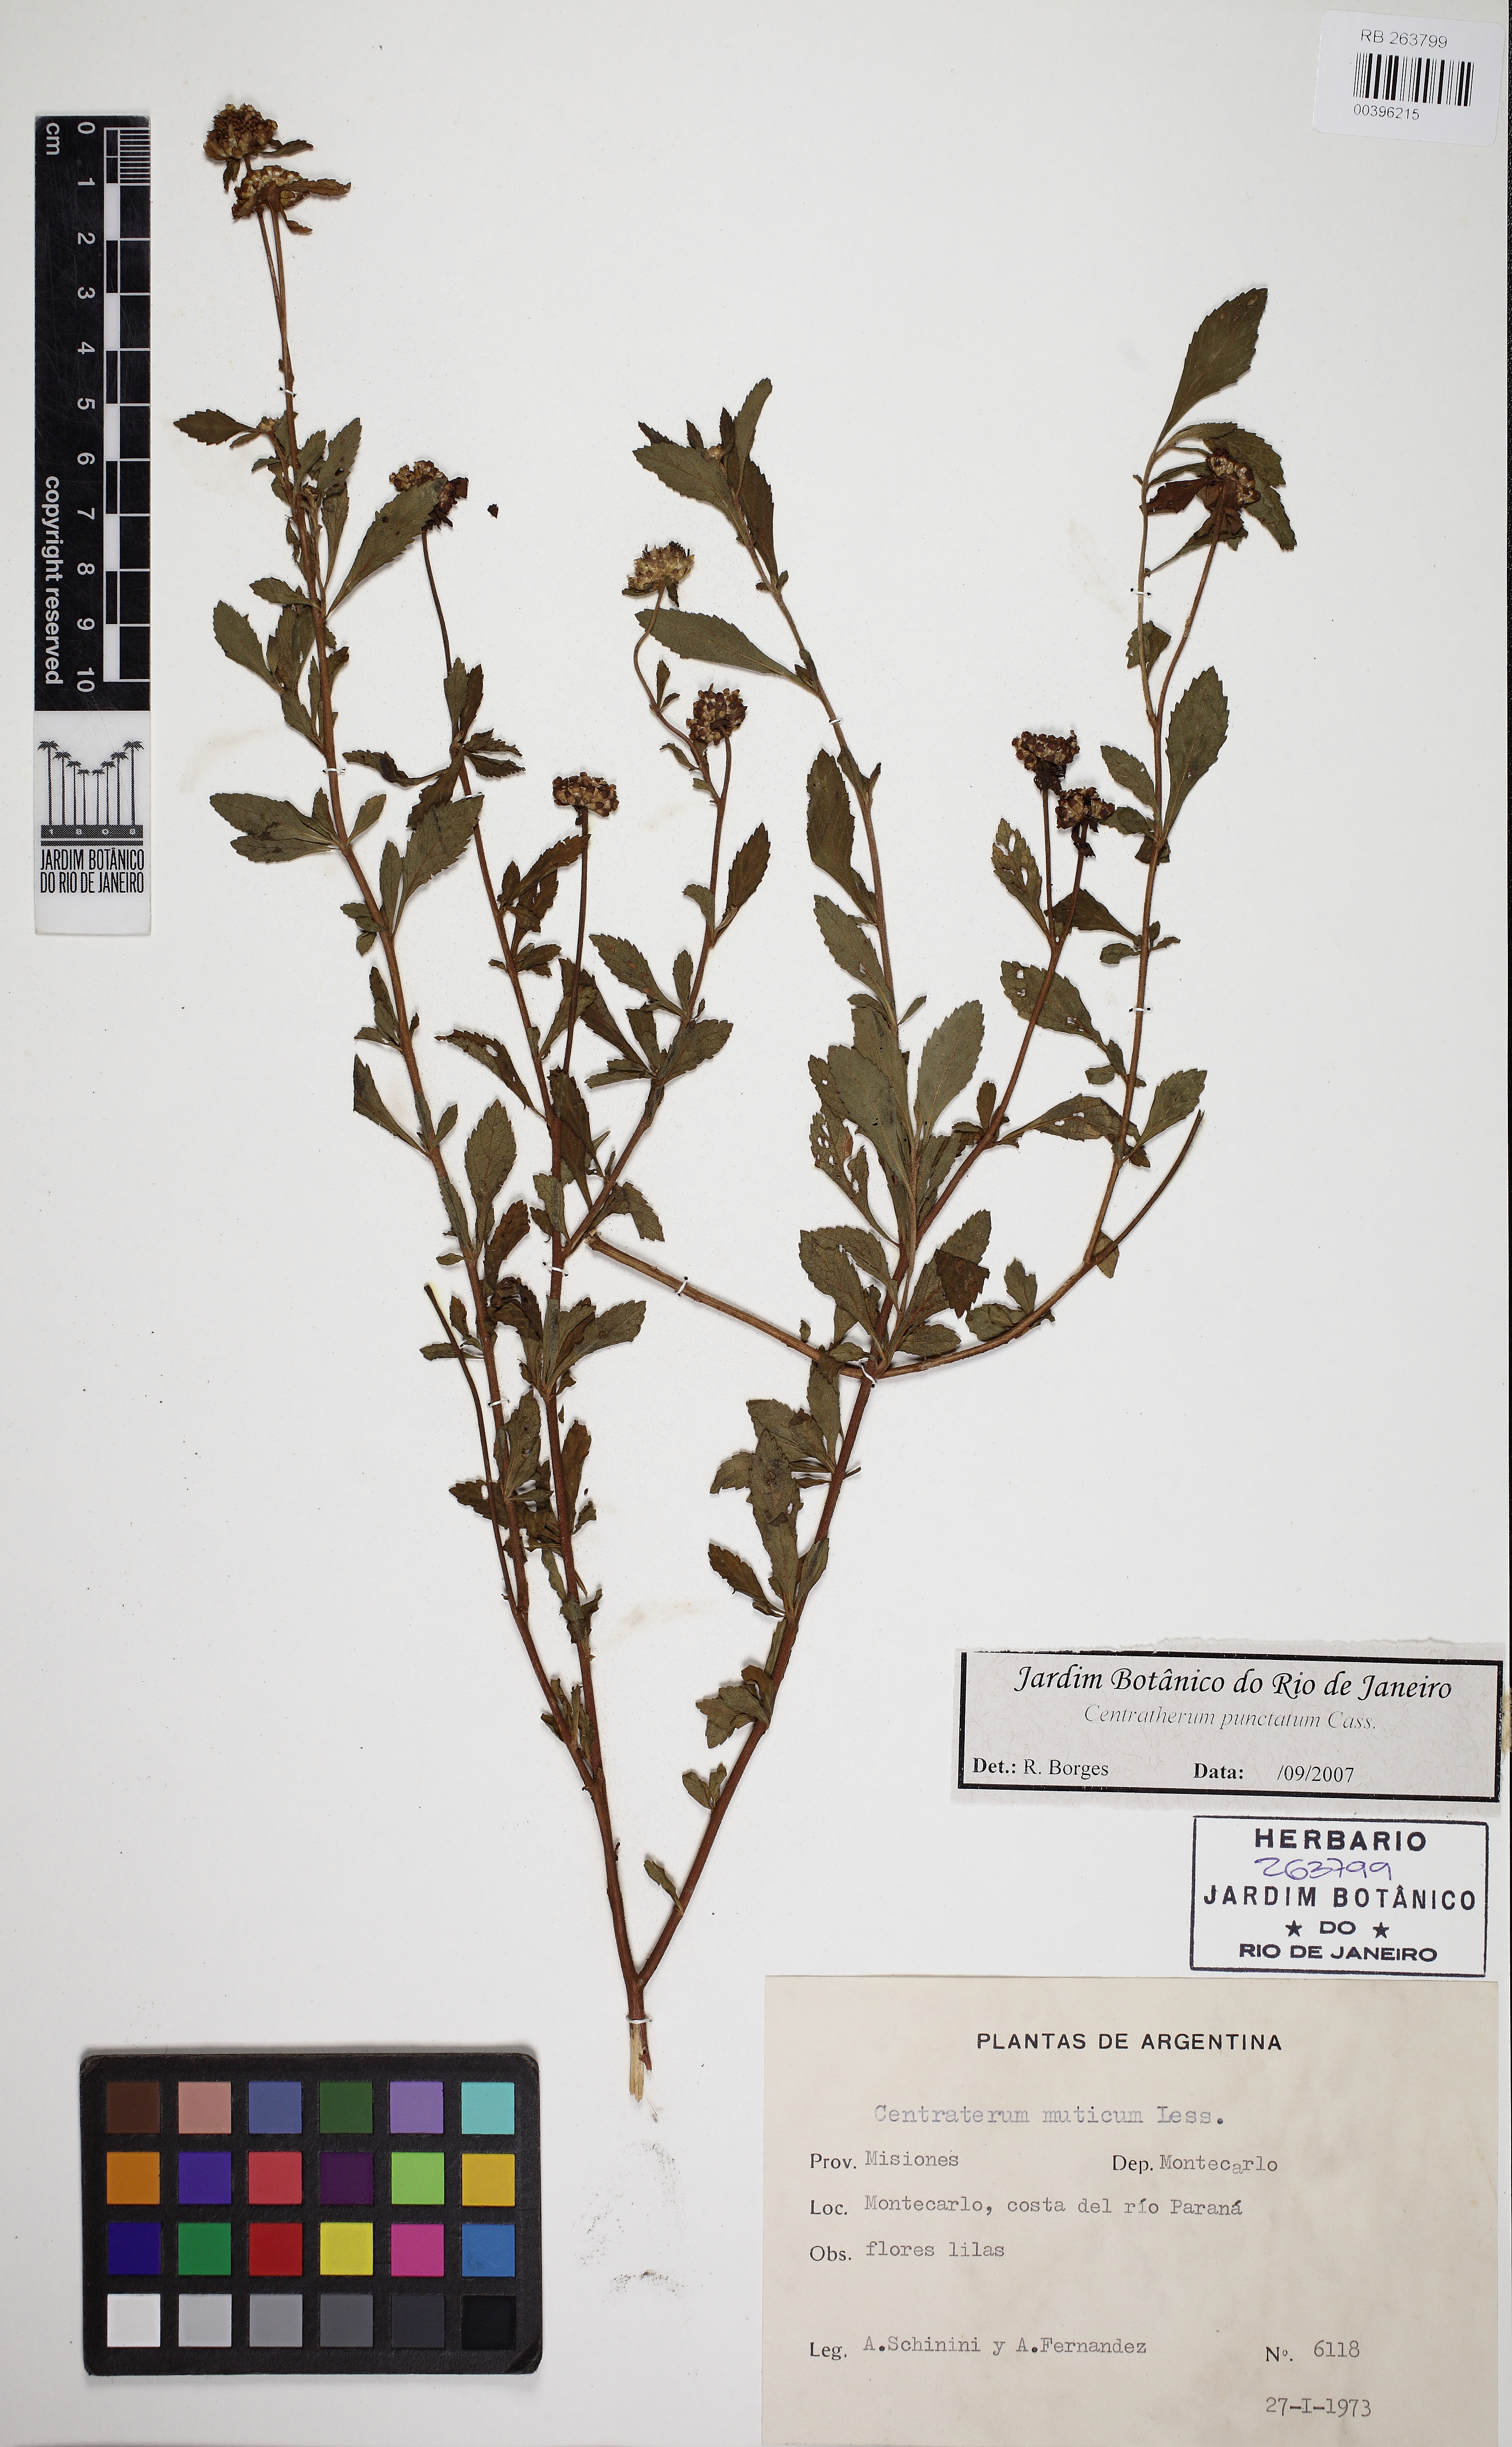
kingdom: Plantae
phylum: Tracheophyta
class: Magnoliopsida
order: Asterales
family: Asteraceae
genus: Centratherum
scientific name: Centratherum punctatum
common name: Larkdaisy
